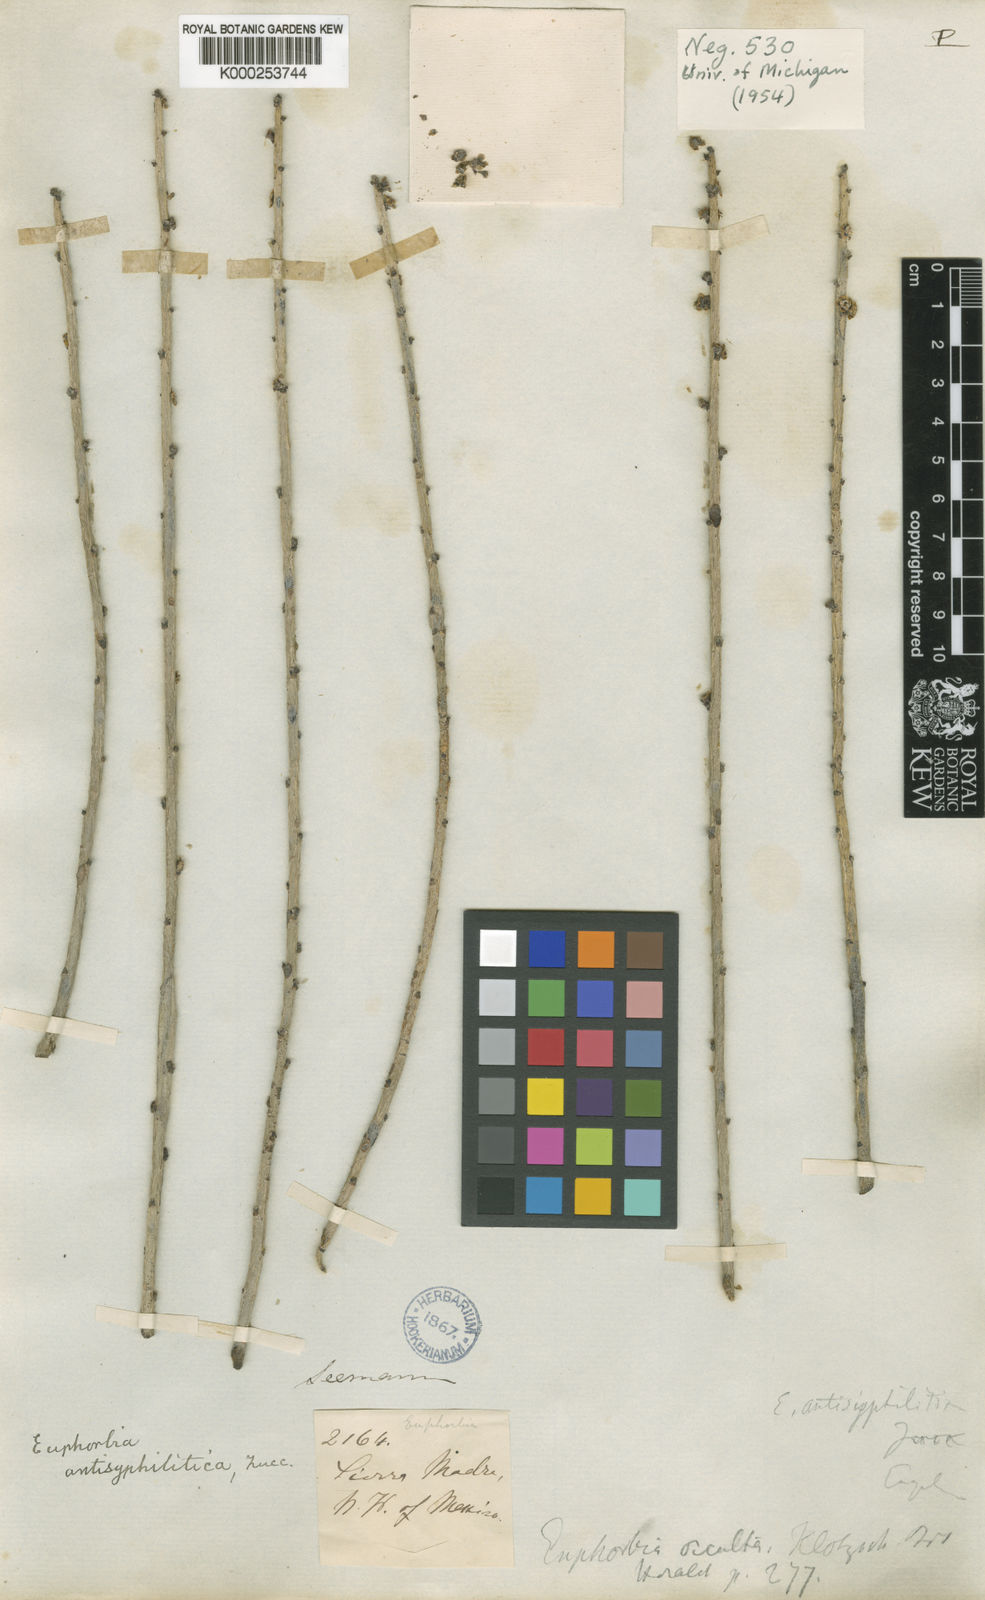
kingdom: Plantae
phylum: Tracheophyta
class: Magnoliopsida
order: Malpighiales
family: Euphorbiaceae
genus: Euphorbia
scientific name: Euphorbia antisyphilitica
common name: Candelilla
